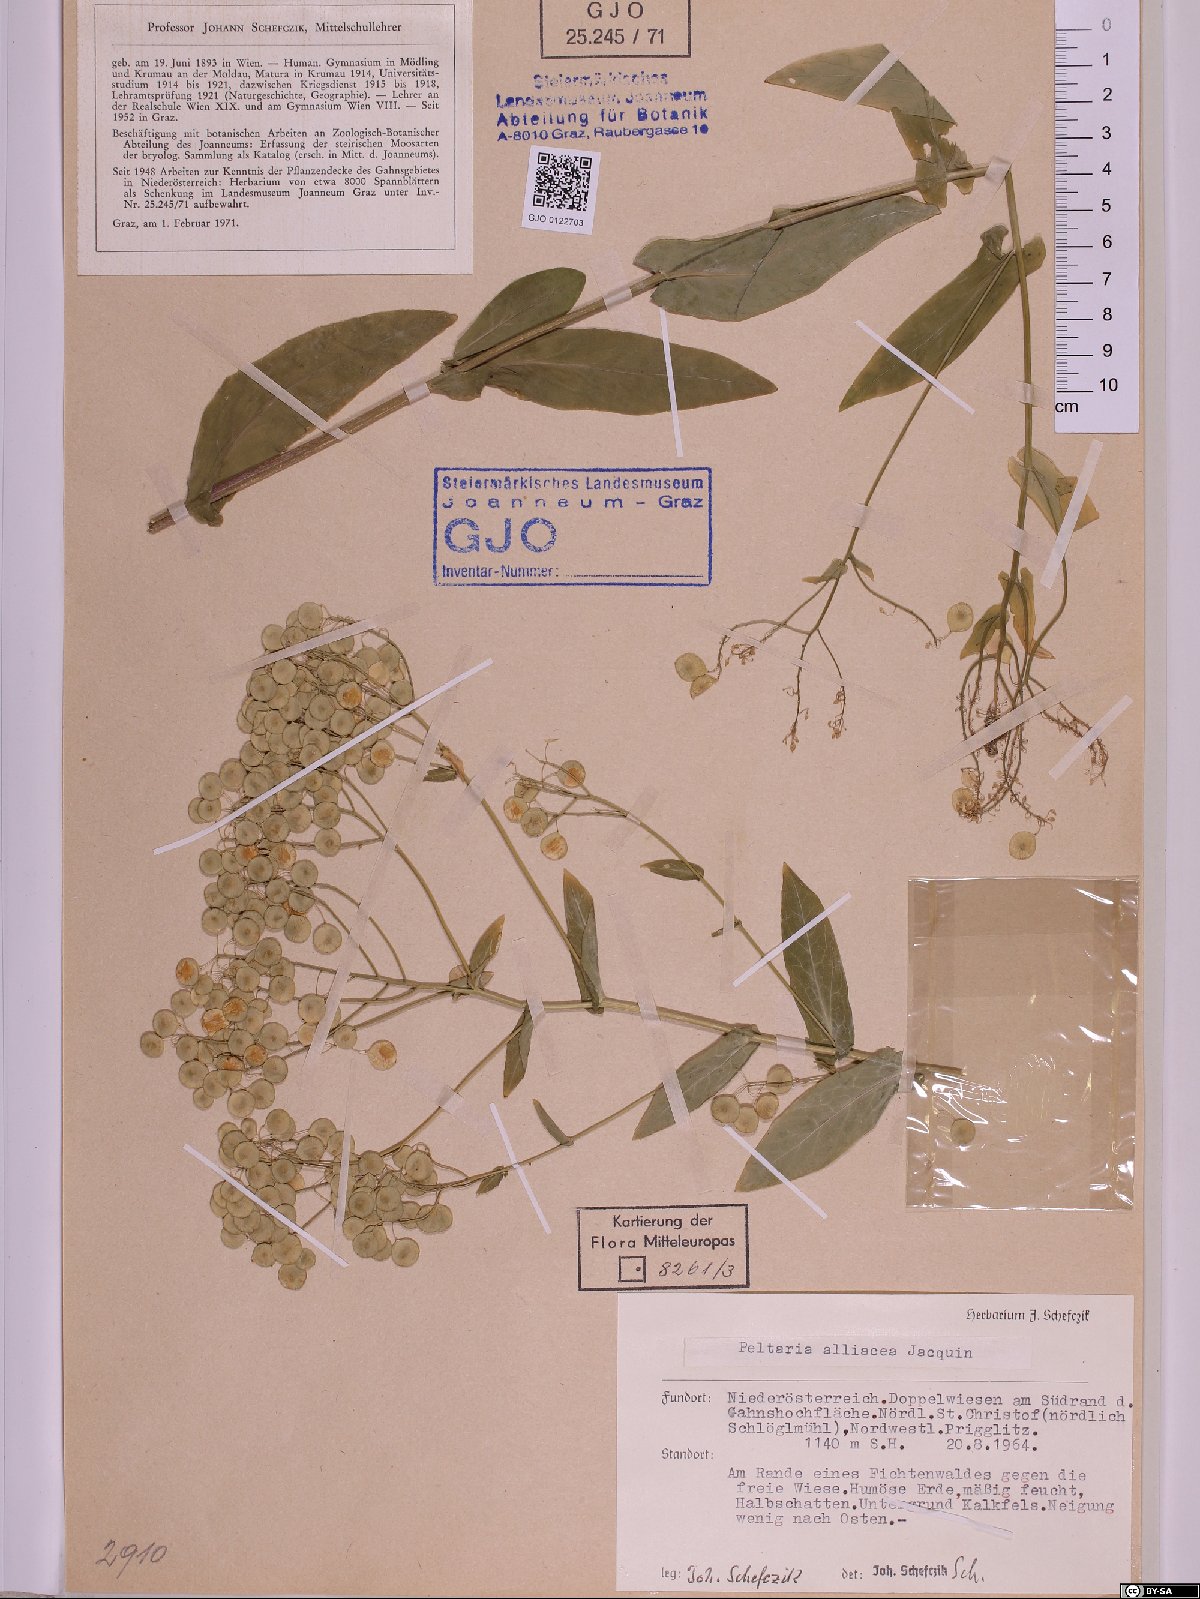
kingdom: Plantae
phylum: Tracheophyta
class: Magnoliopsida
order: Brassicales
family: Brassicaceae
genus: Peltaria
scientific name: Peltaria alliacea
